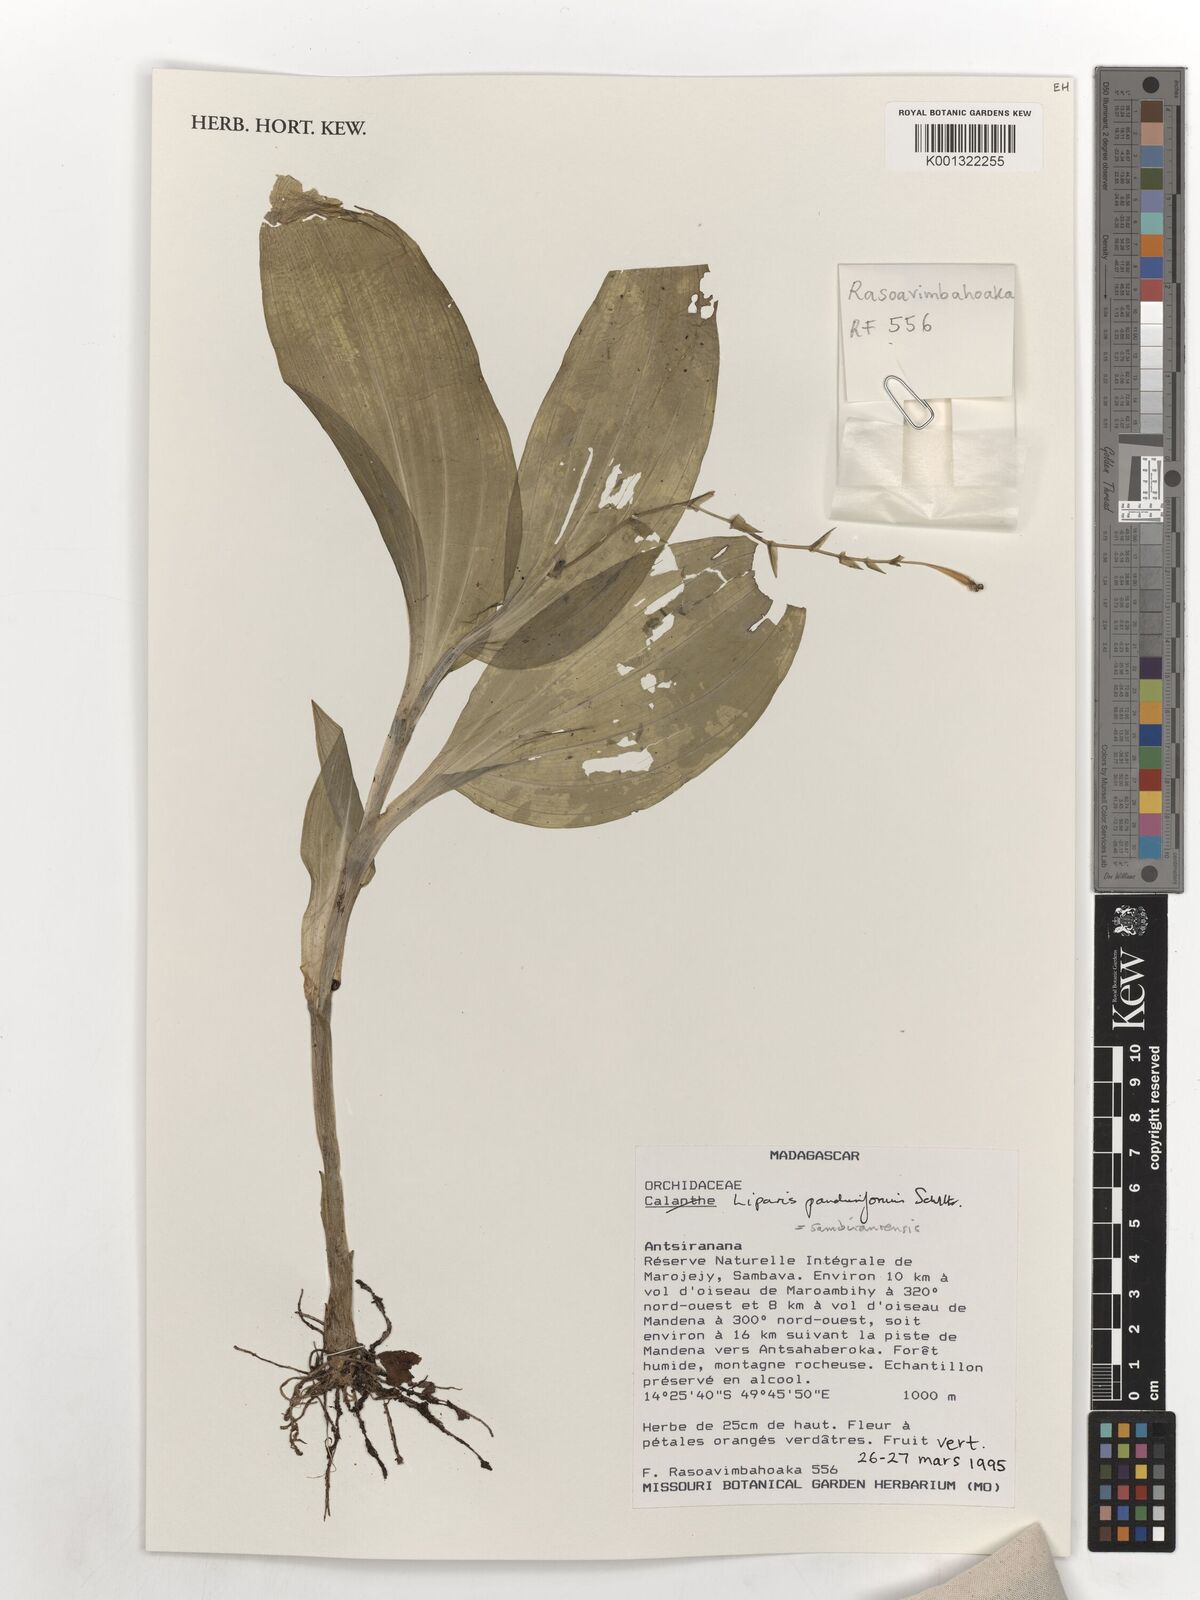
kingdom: Plantae
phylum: Tracheophyta
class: Liliopsida
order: Asparagales
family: Orchidaceae
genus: Liparis
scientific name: Liparis
